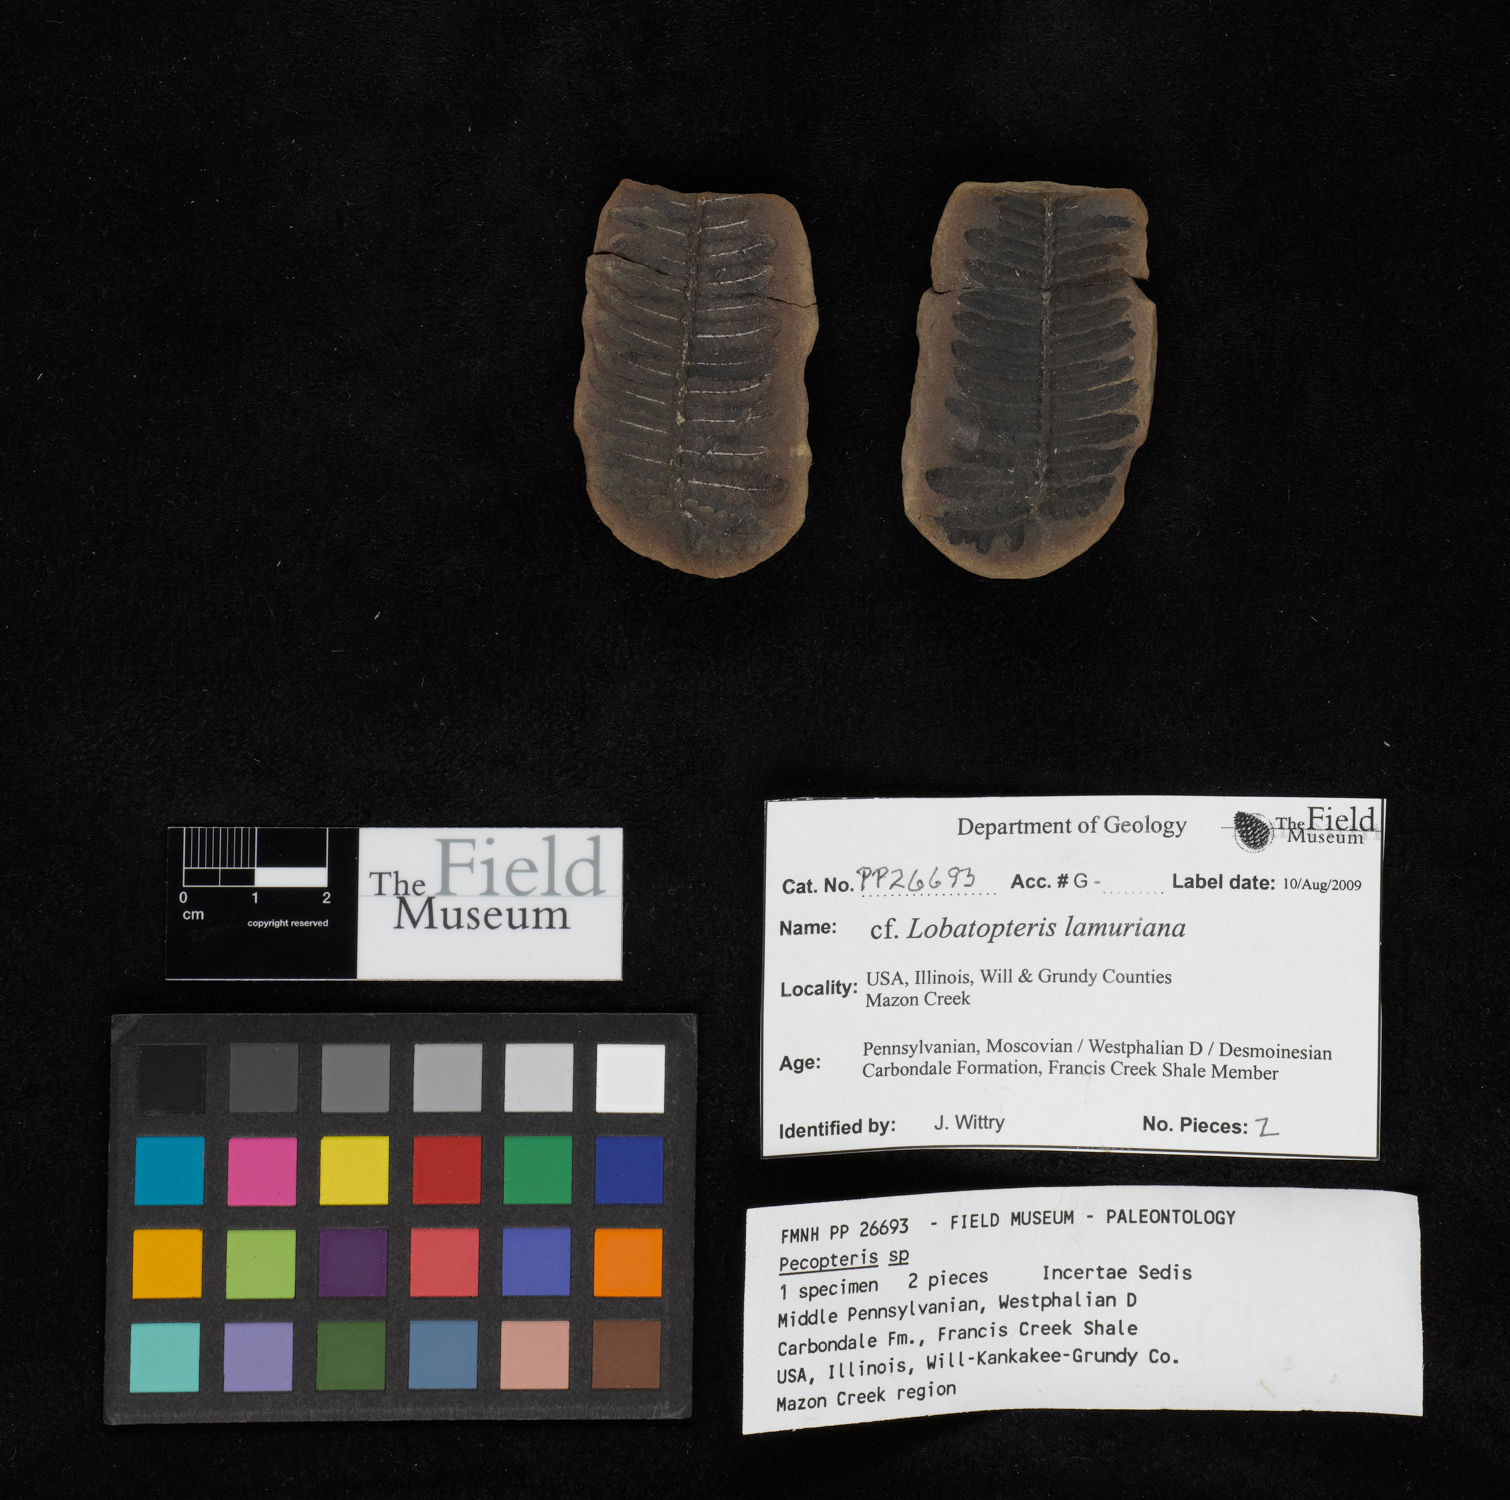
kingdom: Plantae
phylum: Tracheophyta
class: Polypodiopsida
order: Marattiales
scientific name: Marattiales
